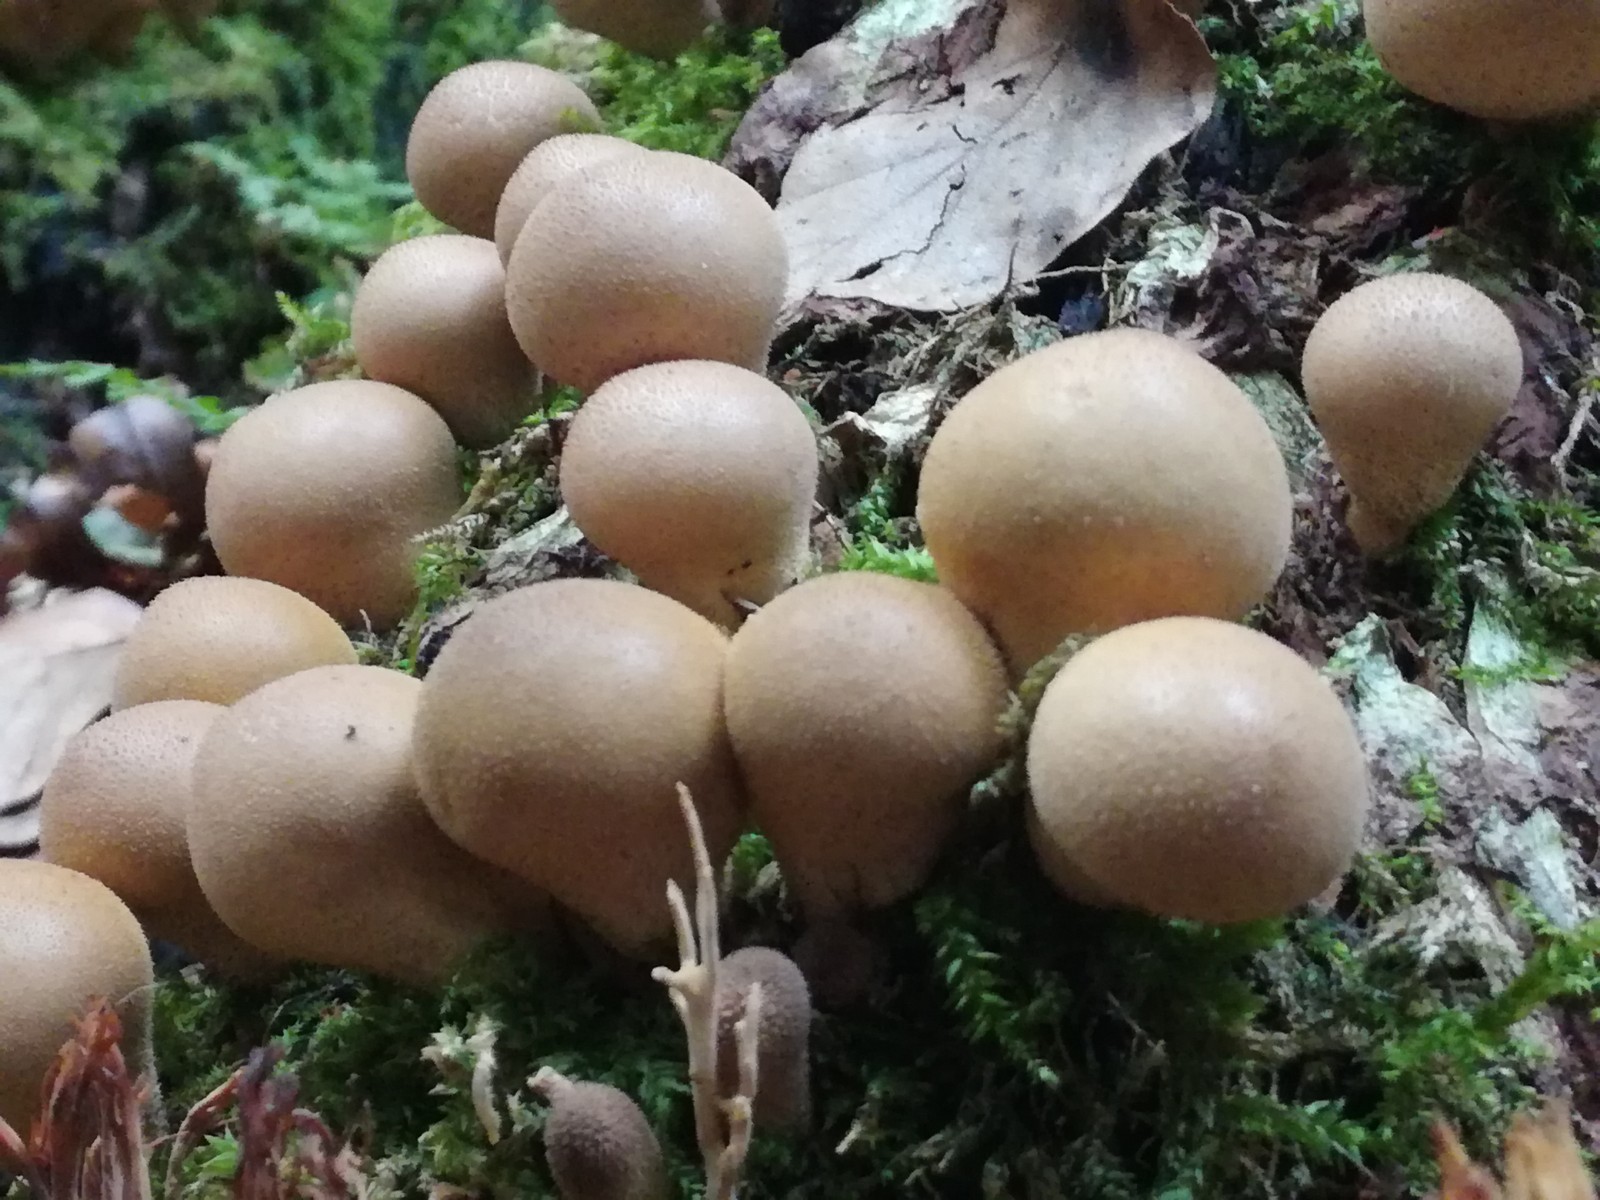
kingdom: Fungi
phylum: Basidiomycota
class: Agaricomycetes
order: Agaricales
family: Lycoperdaceae
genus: Apioperdon
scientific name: Apioperdon pyriforme
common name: pære-støvbold
